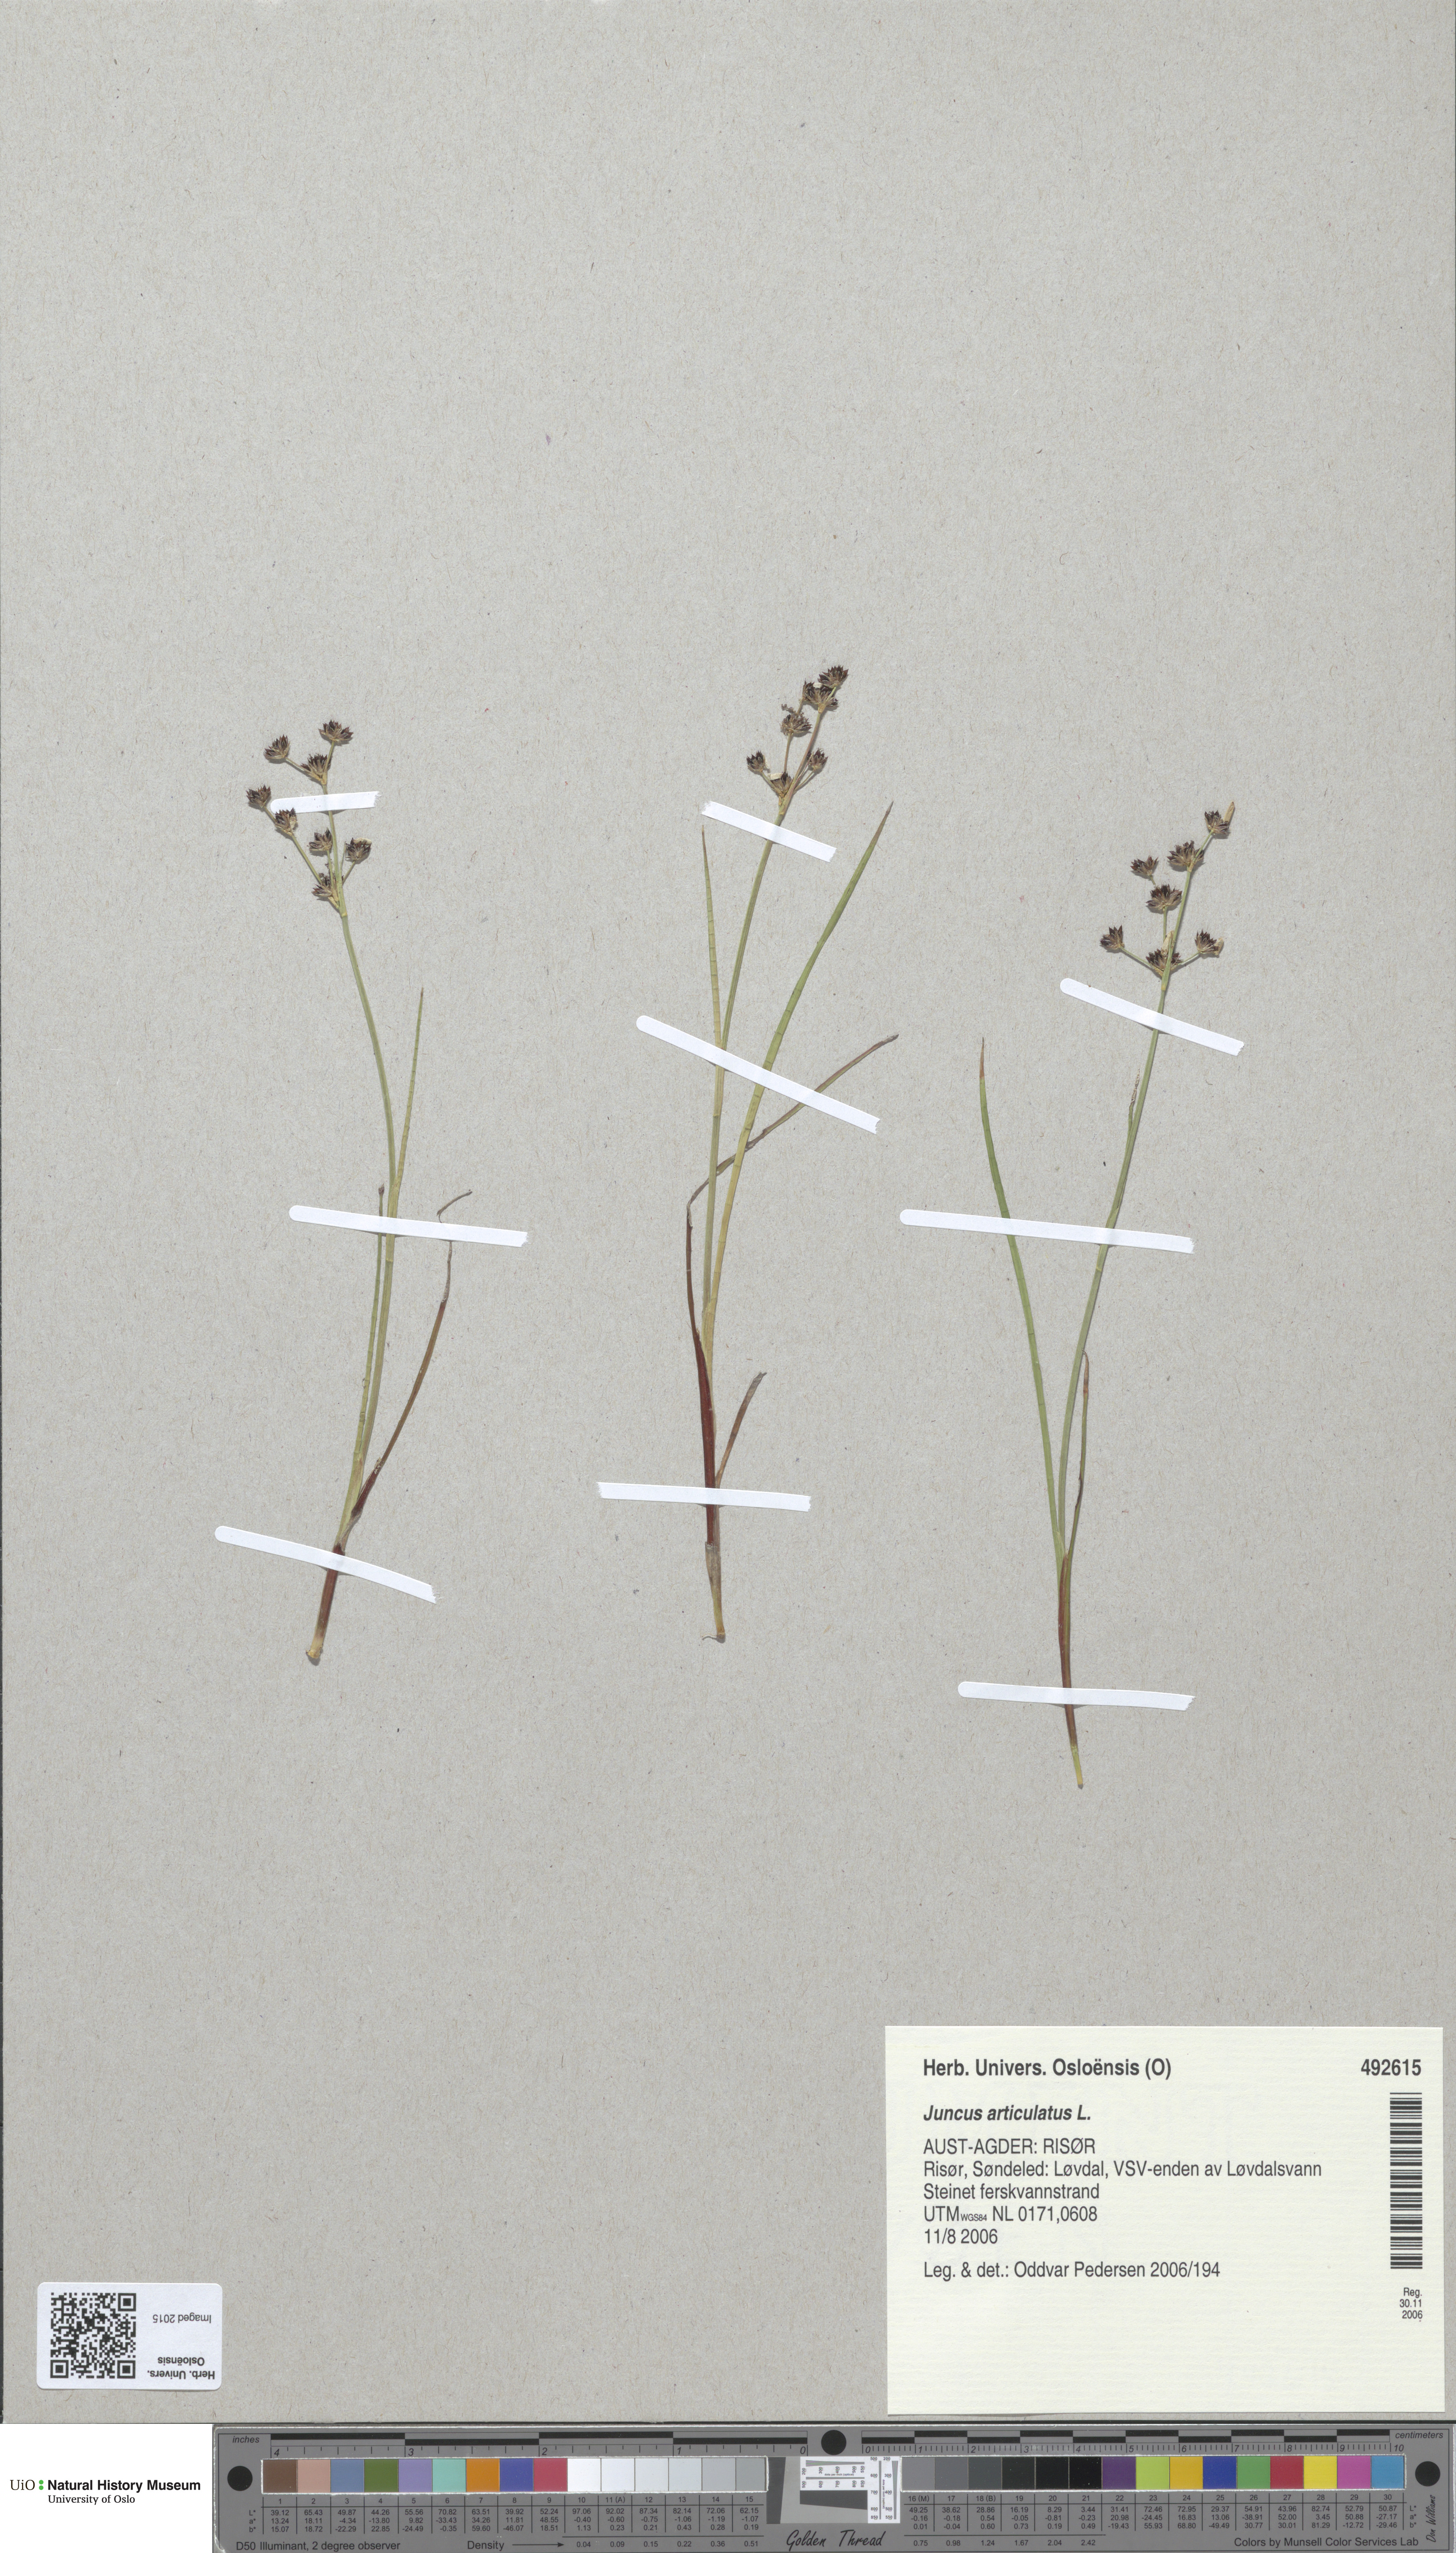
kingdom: Plantae
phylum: Tracheophyta
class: Liliopsida
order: Poales
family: Juncaceae
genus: Juncus
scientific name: Juncus articulatus
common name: Jointed rush
